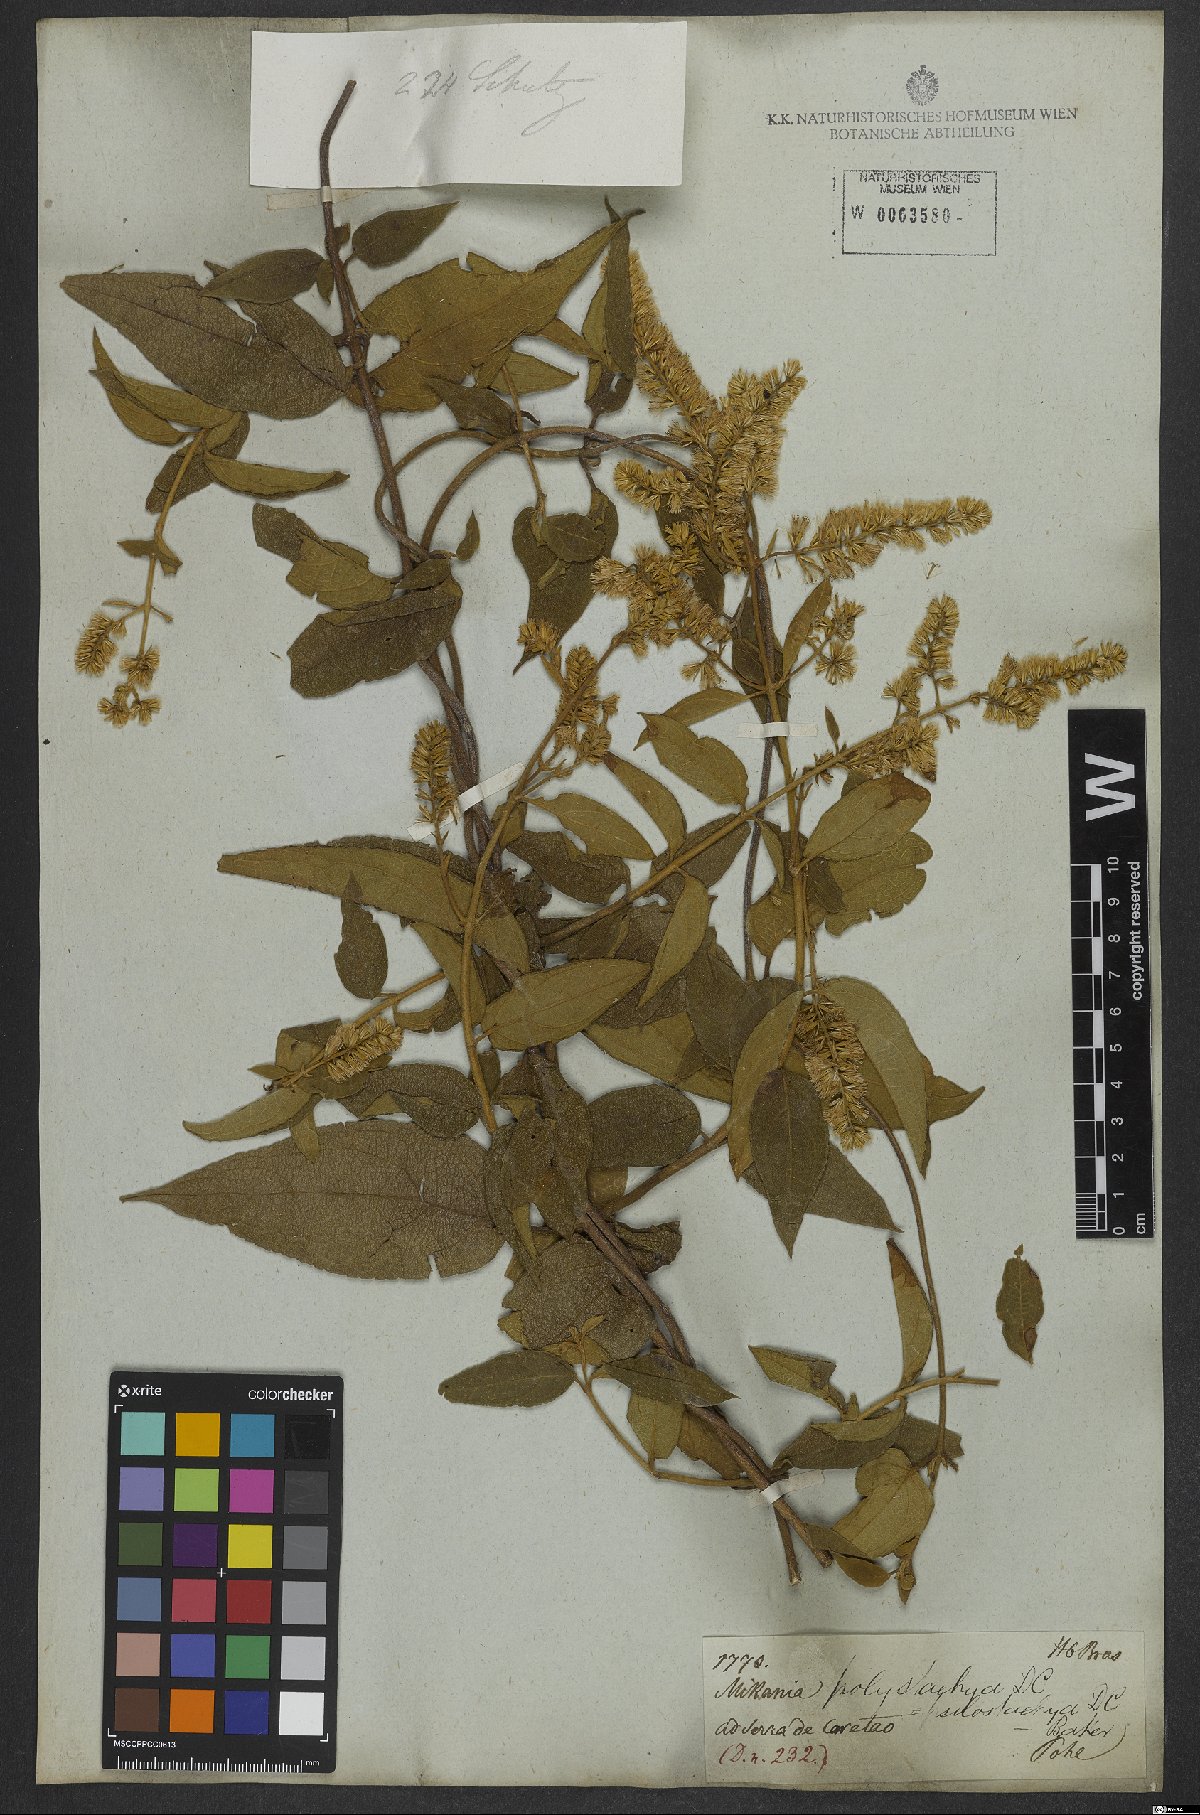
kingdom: Plantae
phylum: Tracheophyta
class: Magnoliopsida
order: Asterales
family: Asteraceae
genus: Mikania
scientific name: Mikania psilostachya
